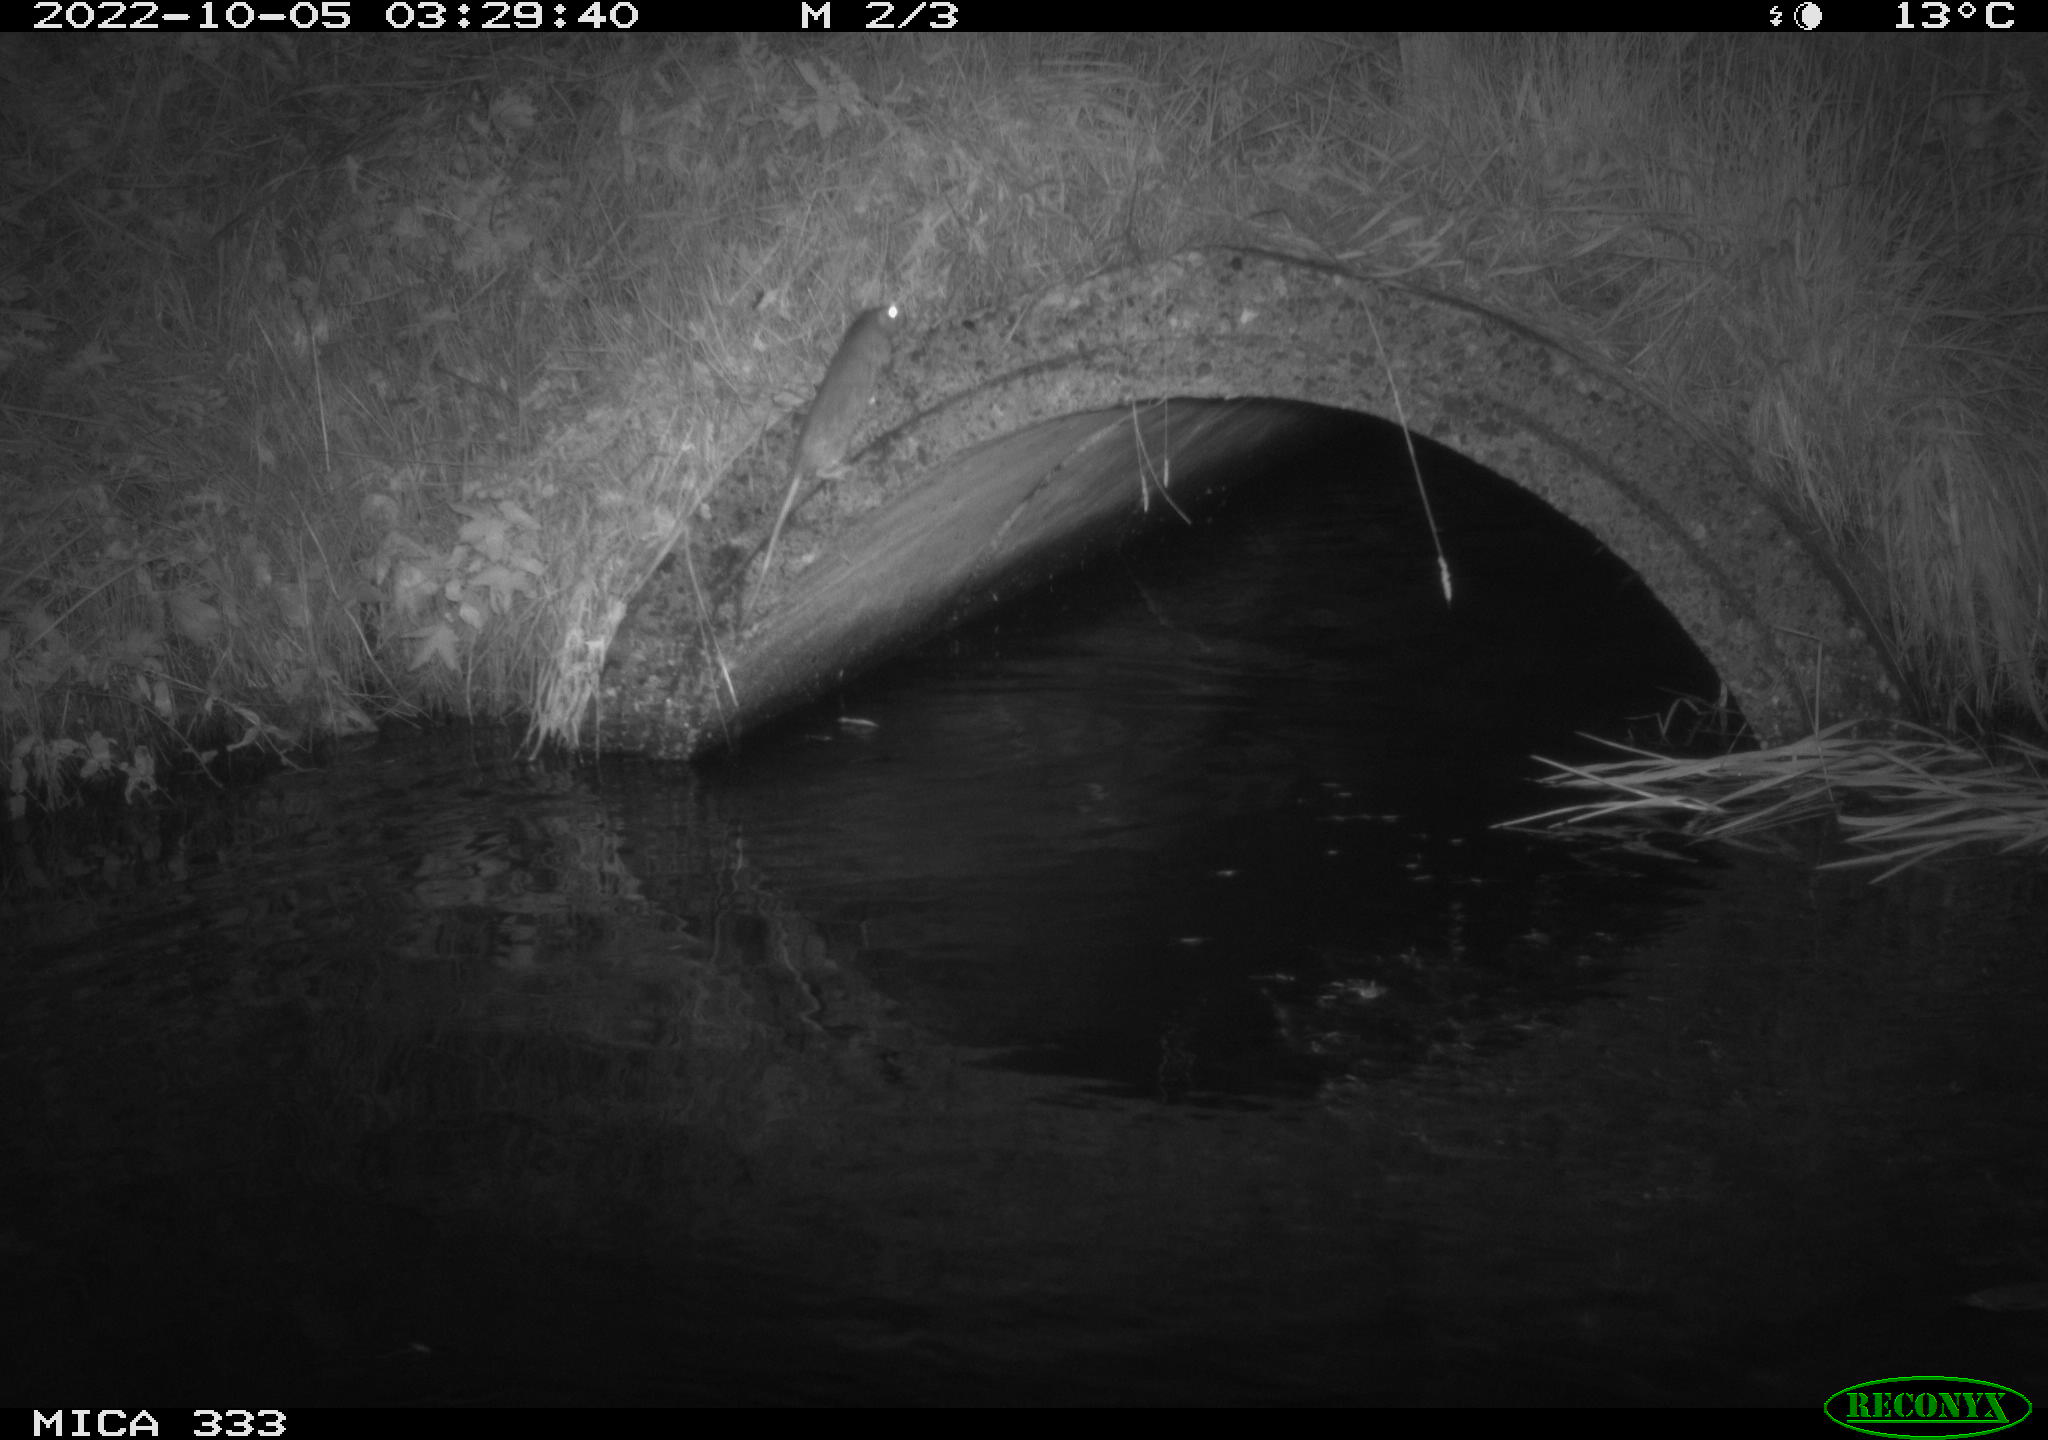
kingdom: Animalia
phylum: Chordata
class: Mammalia
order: Rodentia
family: Muridae
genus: Rattus
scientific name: Rattus norvegicus
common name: Brown rat
